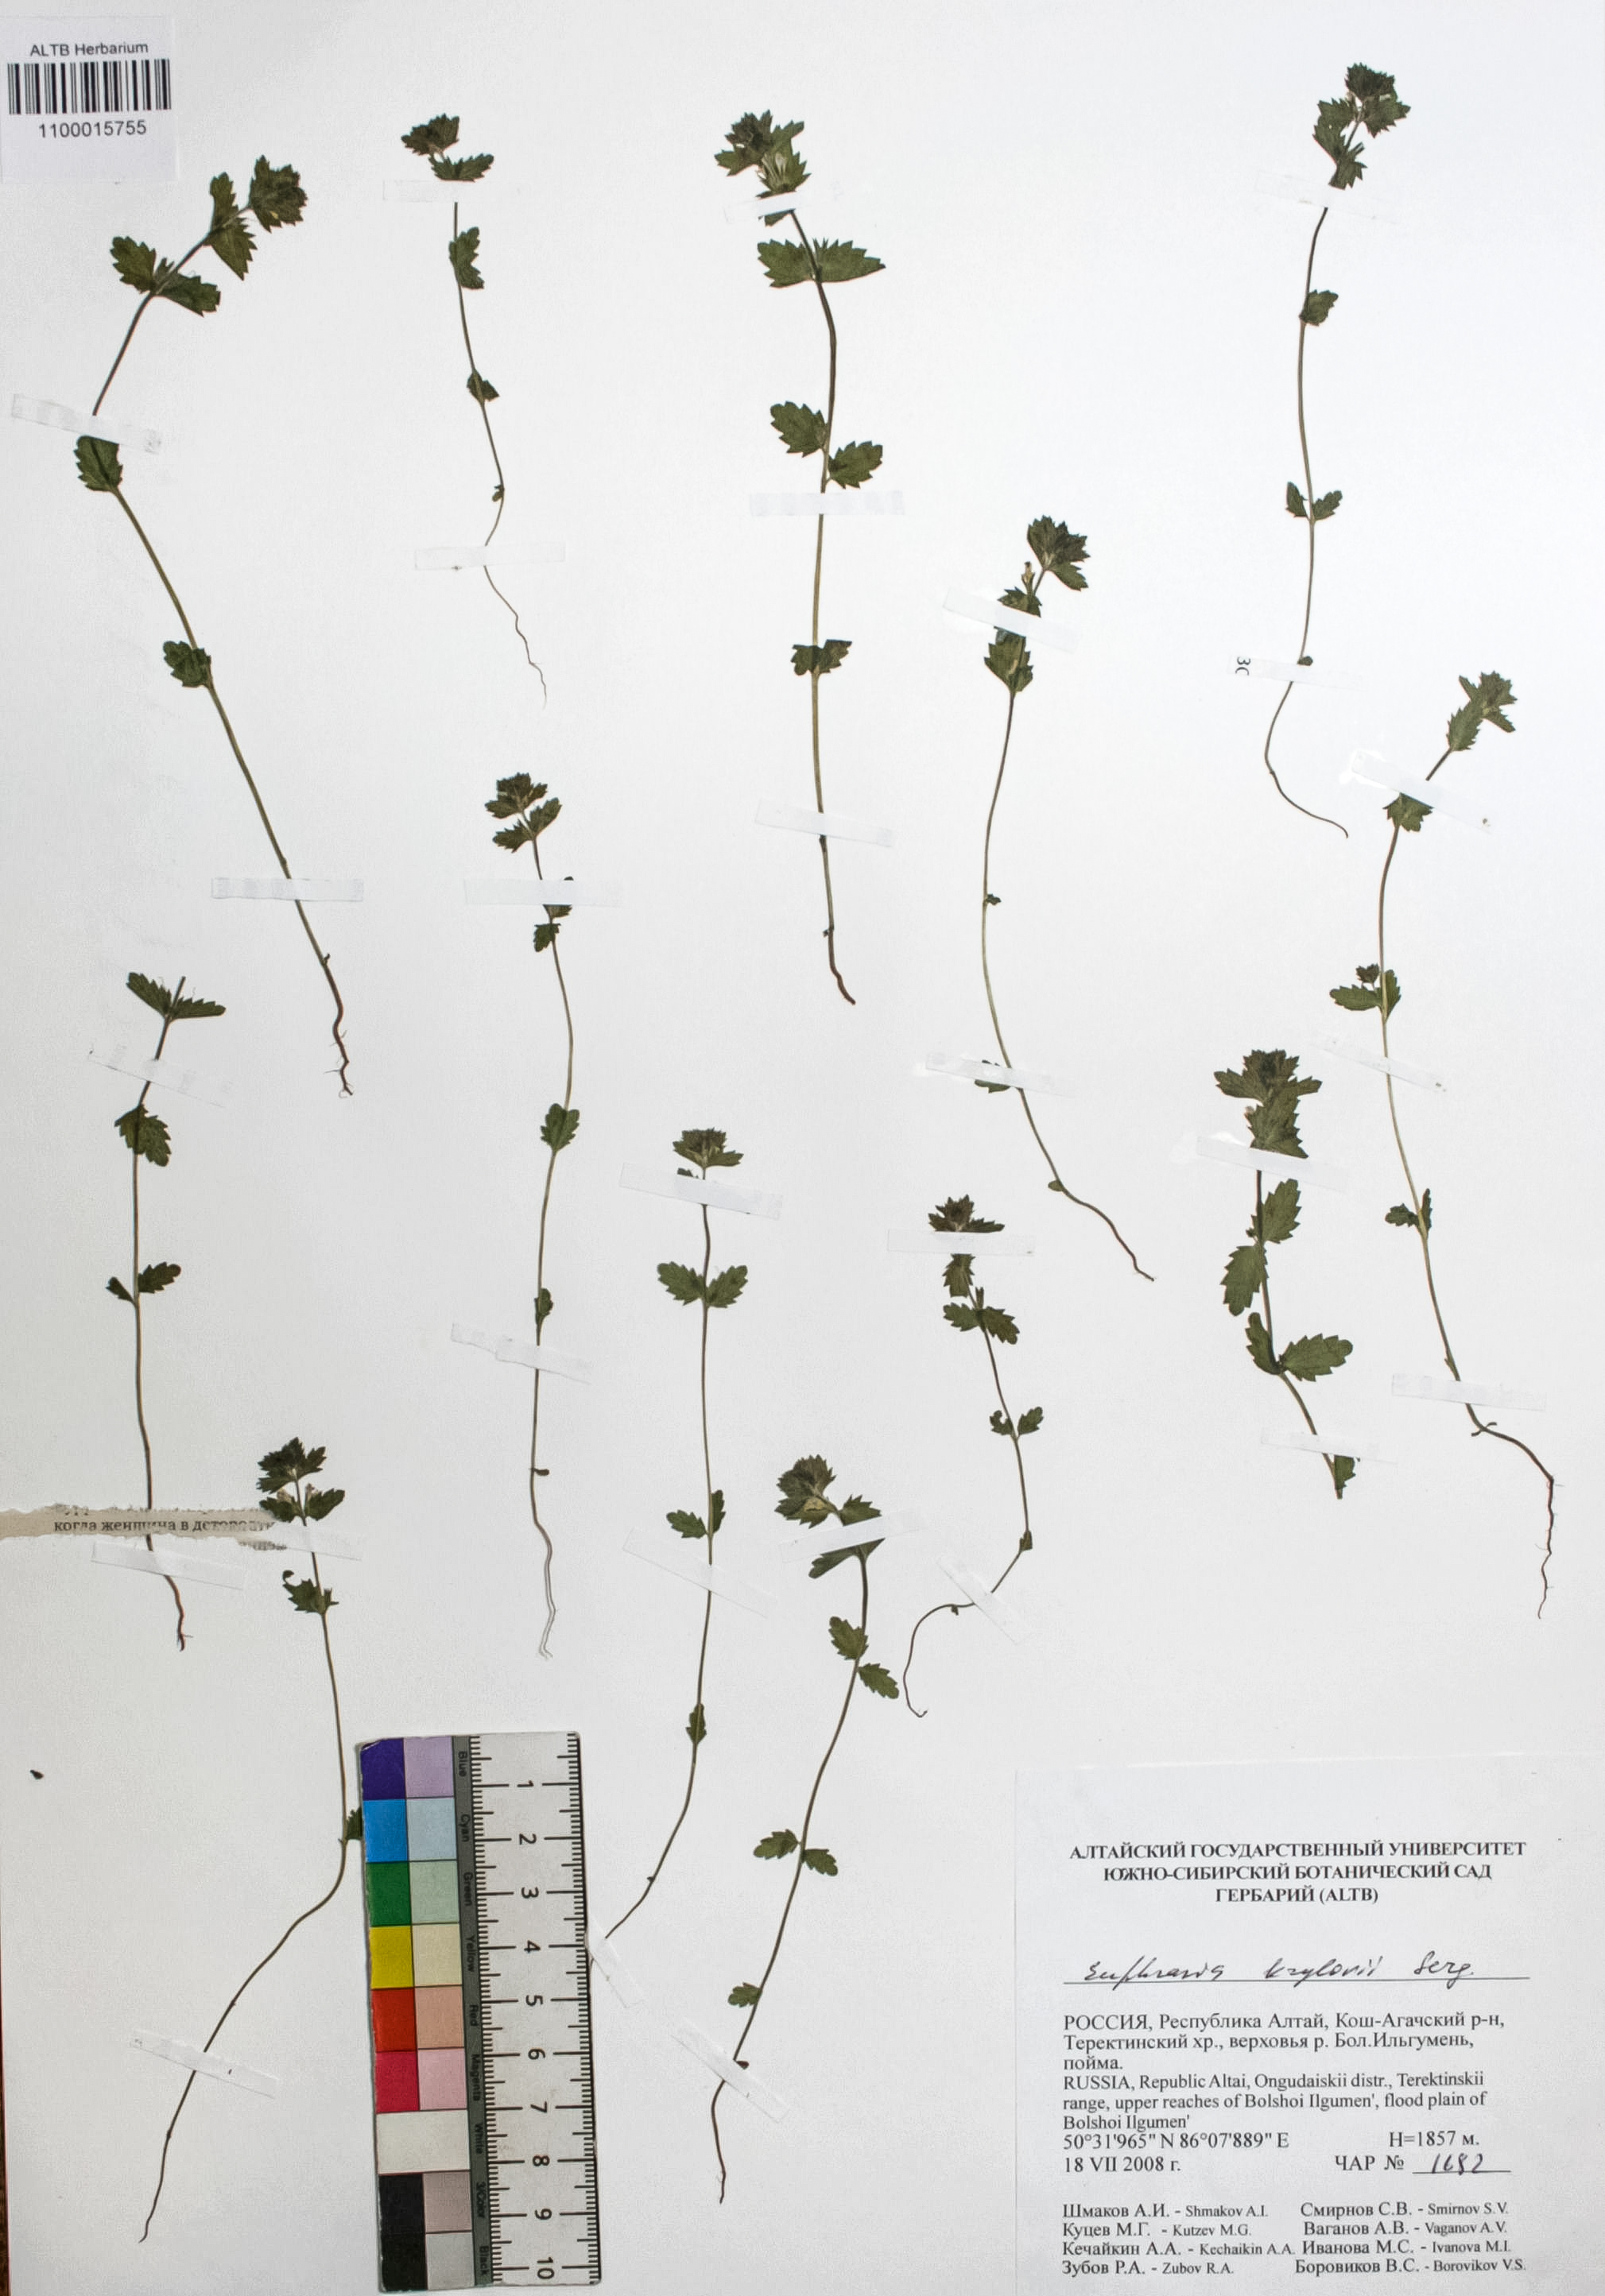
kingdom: Plantae
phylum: Tracheophyta
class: Magnoliopsida
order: Lamiales
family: Orobanchaceae
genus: Euphrasia
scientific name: Euphrasia krylovii
